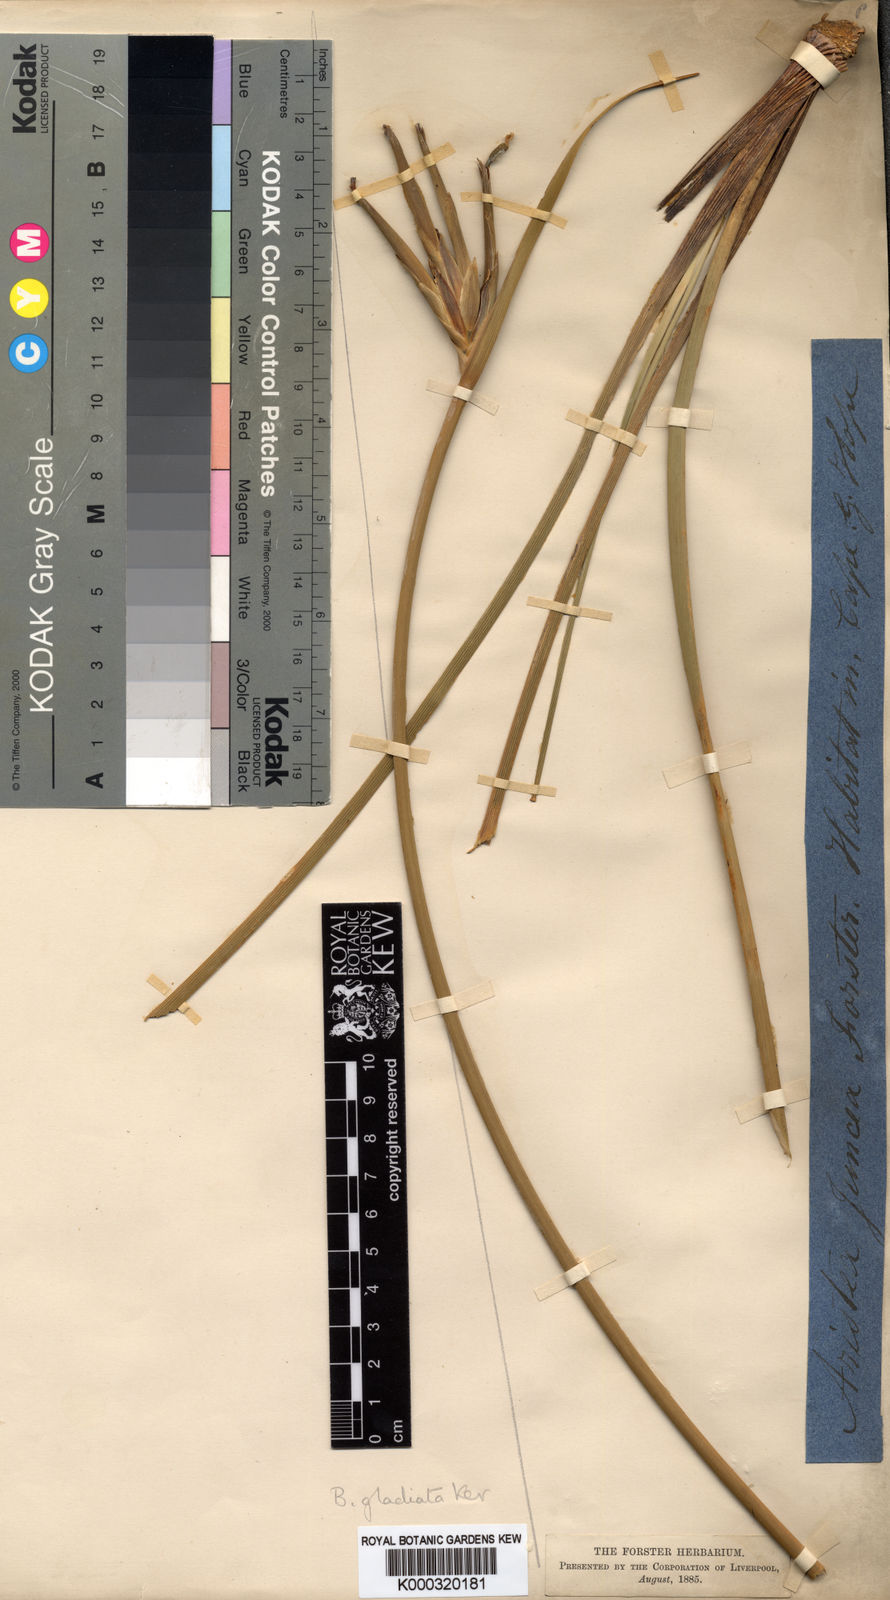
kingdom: Plantae
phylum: Tracheophyta
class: Liliopsida
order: Asparagales
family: Iridaceae
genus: Bobartia
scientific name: Bobartia gladiata
